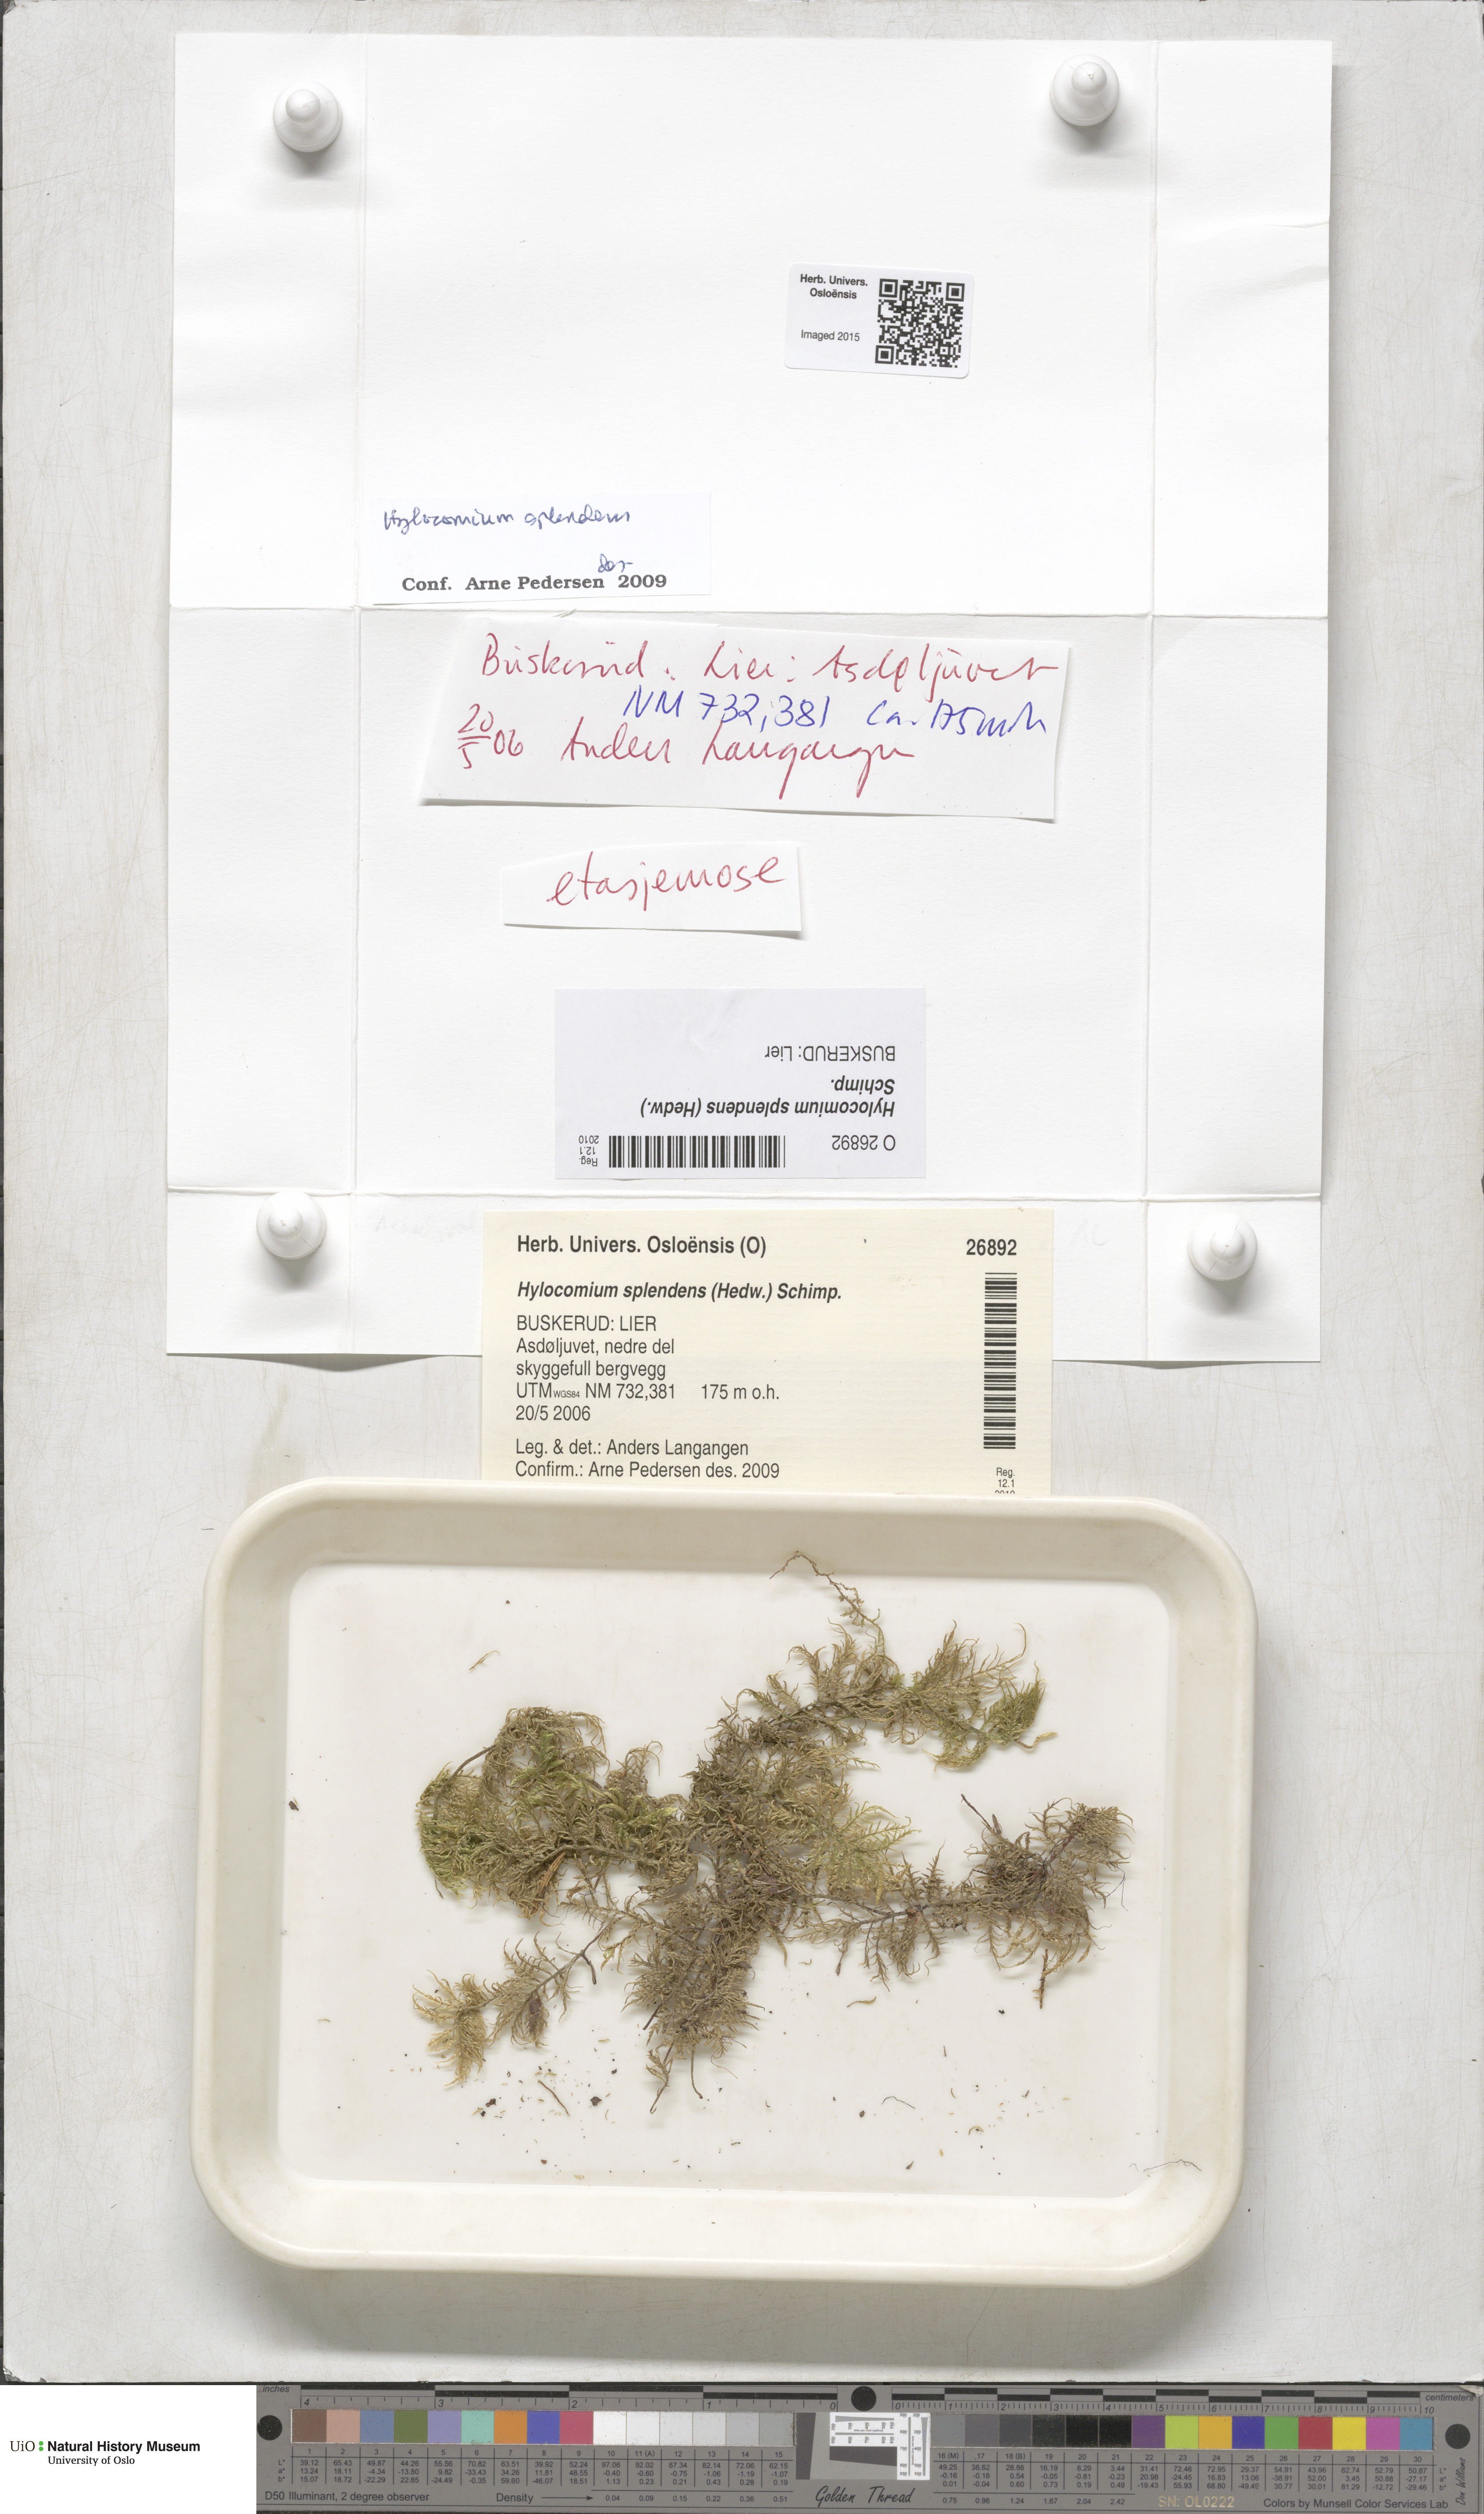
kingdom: Plantae
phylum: Bryophyta
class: Bryopsida
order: Hypnales
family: Hylocomiaceae
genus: Hylocomium
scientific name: Hylocomium splendens
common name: Stairstep moss
